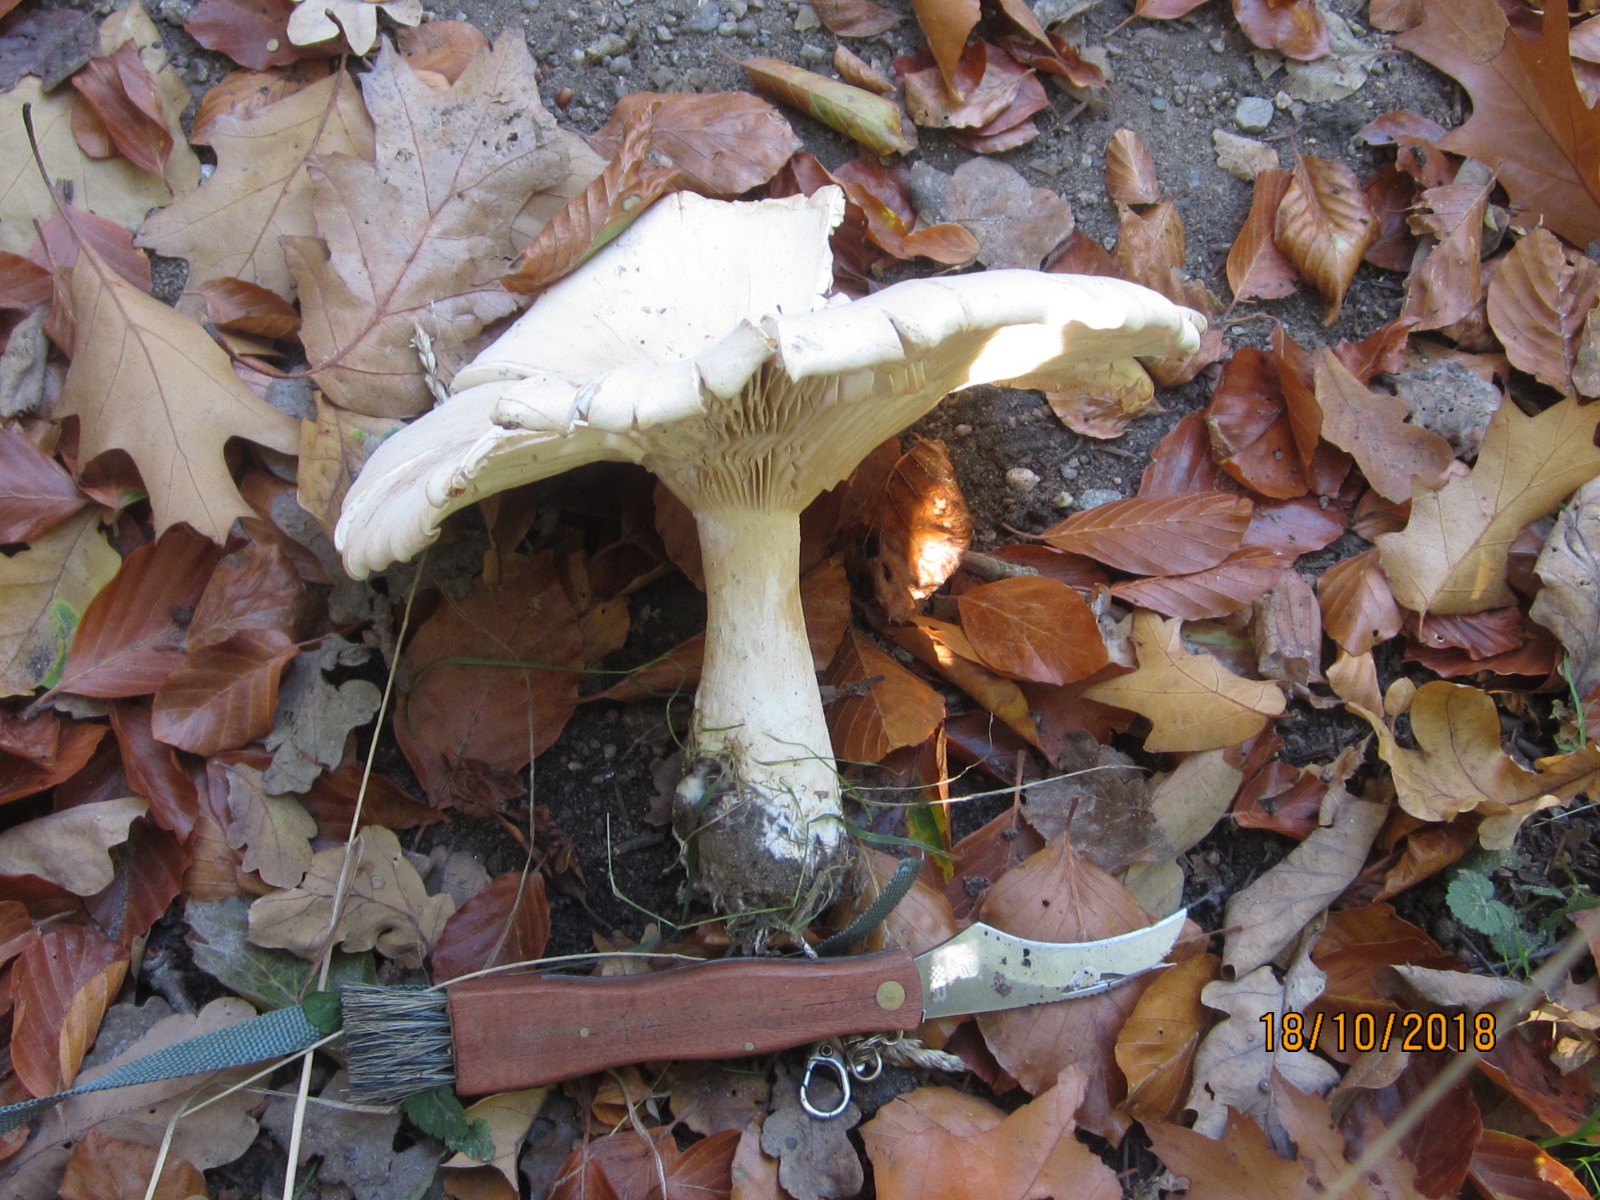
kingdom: Fungi
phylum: Basidiomycota
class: Agaricomycetes
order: Agaricales
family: Tricholomataceae
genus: Aspropaxillus
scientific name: Aspropaxillus giganteus
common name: kæmpe-tragtridderhat
